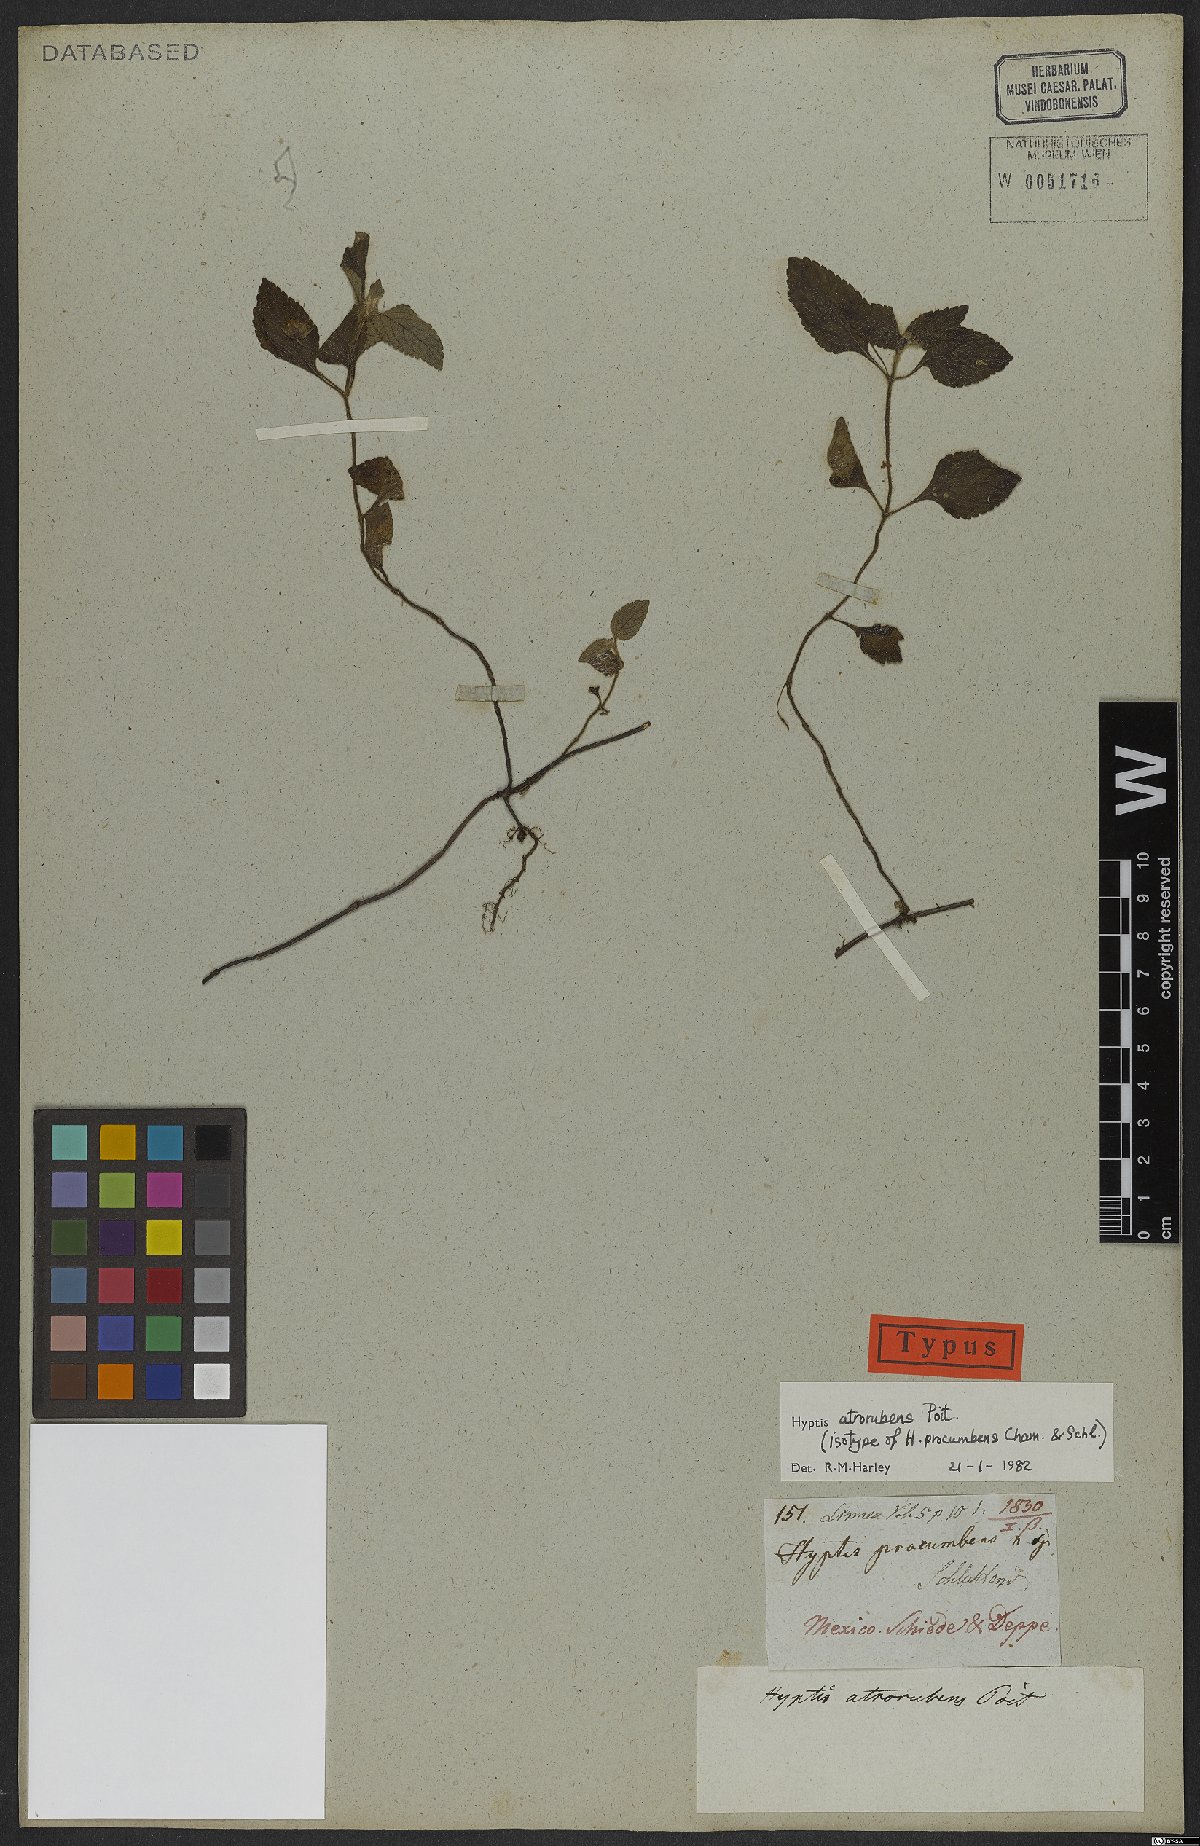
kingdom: Plantae
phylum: Tracheophyta
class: Magnoliopsida
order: Lamiales
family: Lamiaceae
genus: Hyptis
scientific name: Hyptis atrorubens
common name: Lanmant
